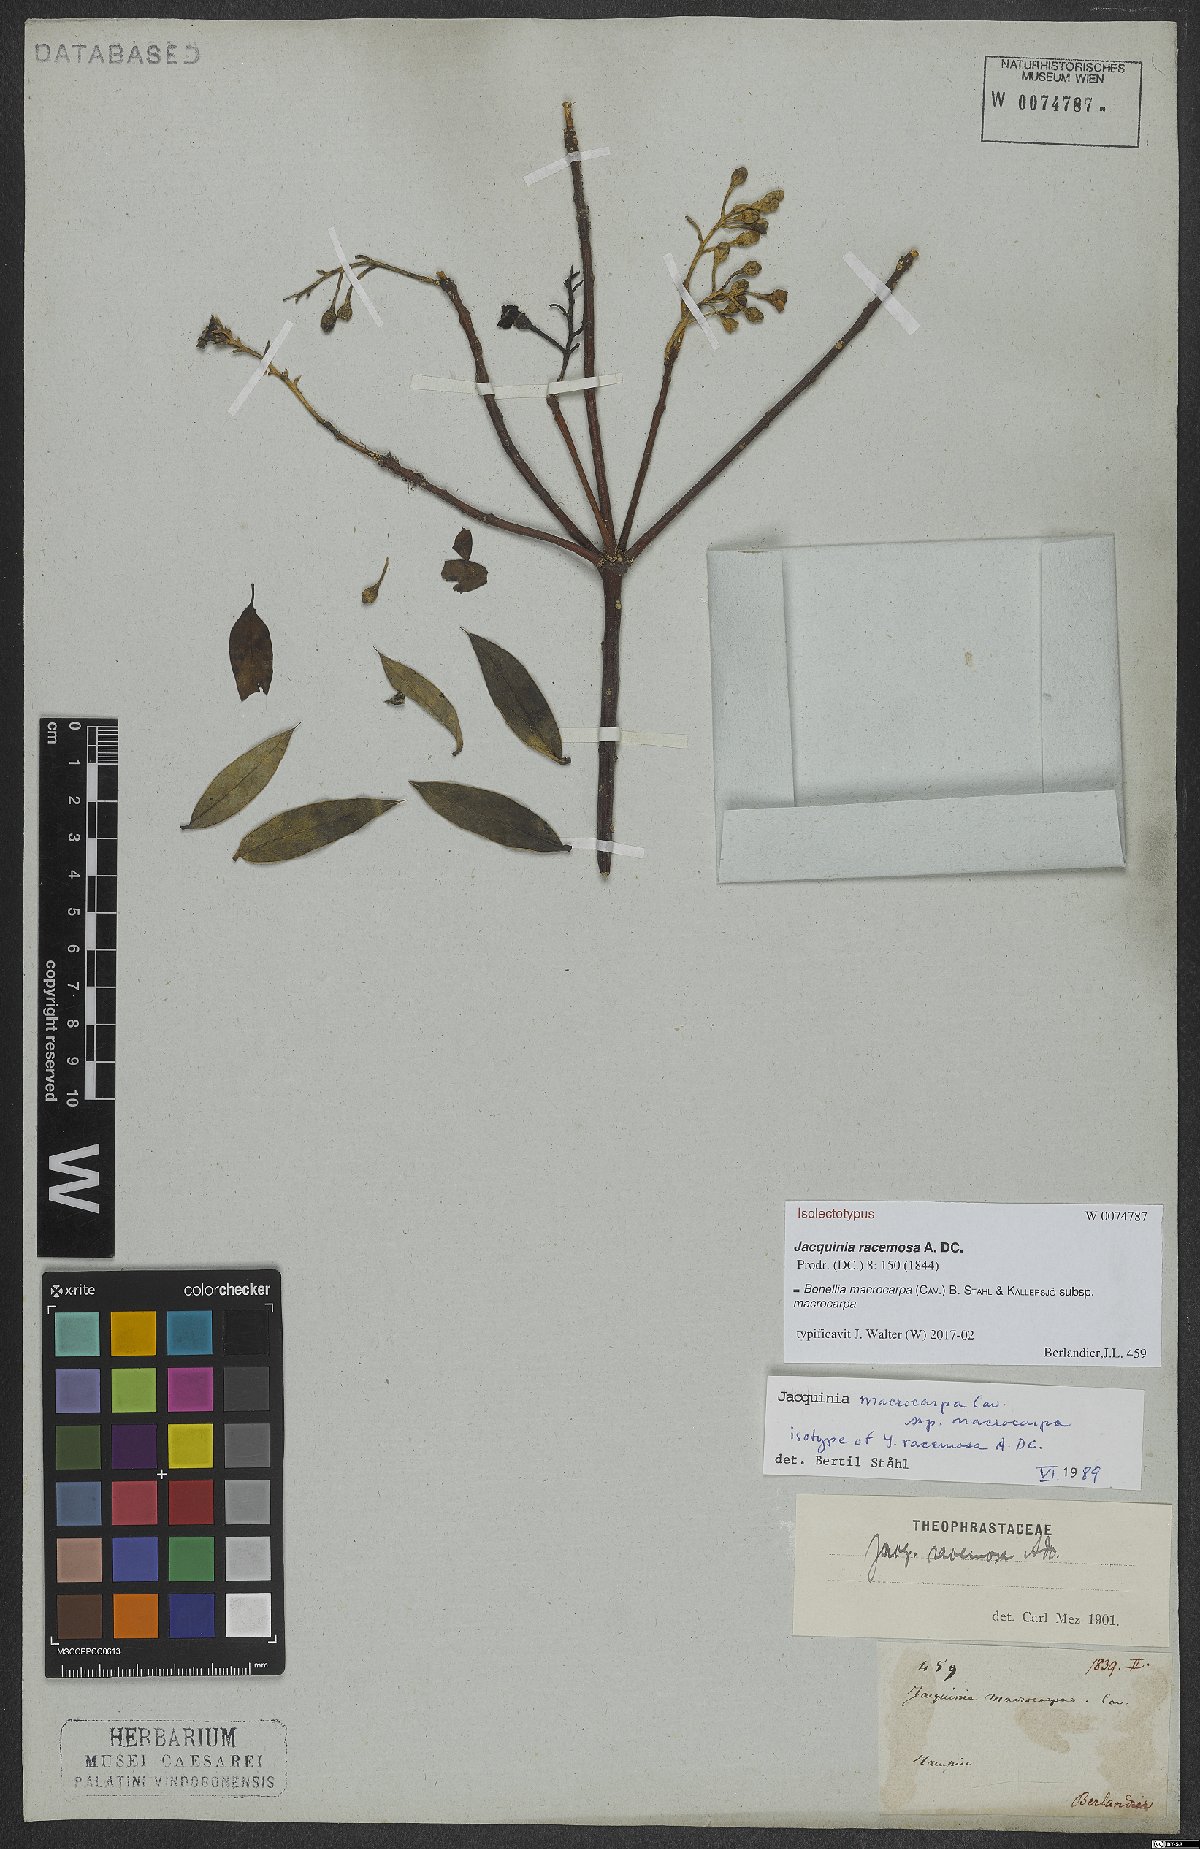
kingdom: Plantae
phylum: Tracheophyta
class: Magnoliopsida
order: Ericales
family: Primulaceae
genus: Bonellia
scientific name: Bonellia macrocarpa
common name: Primrose
